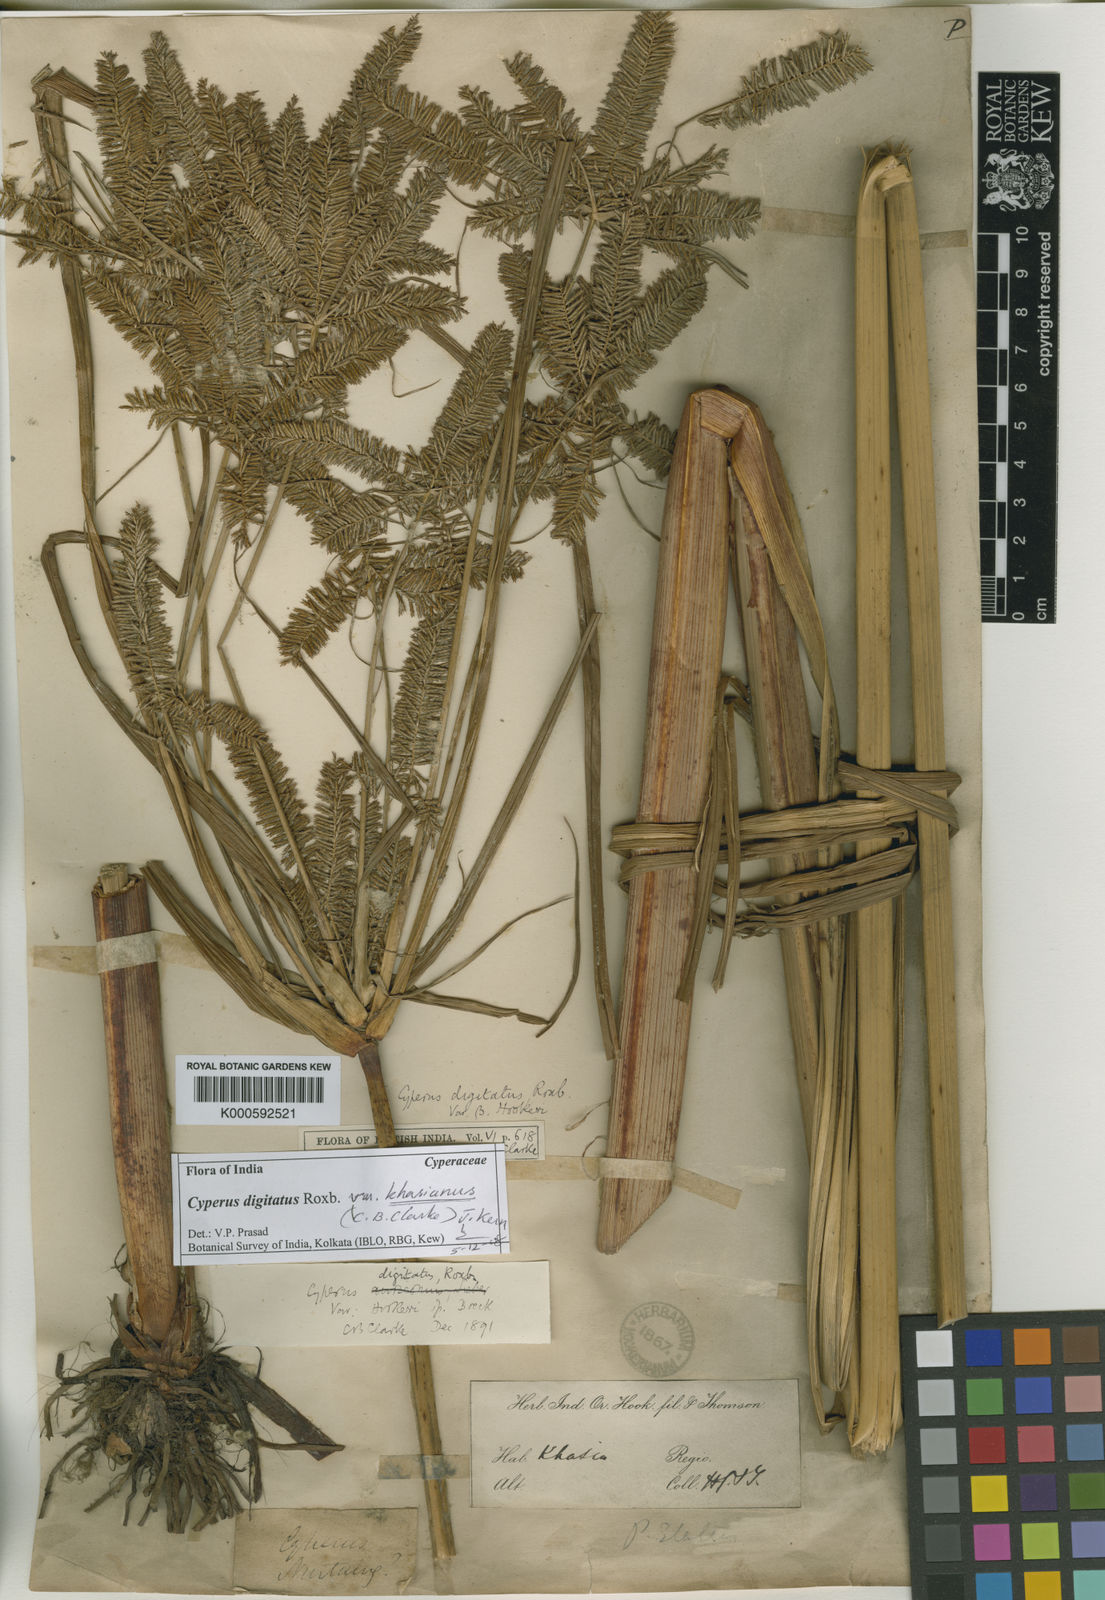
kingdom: Plantae
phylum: Tracheophyta
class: Liliopsida
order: Poales
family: Cyperaceae
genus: Cyperus
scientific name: Cyperus digitatus
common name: Finger flatsedge
